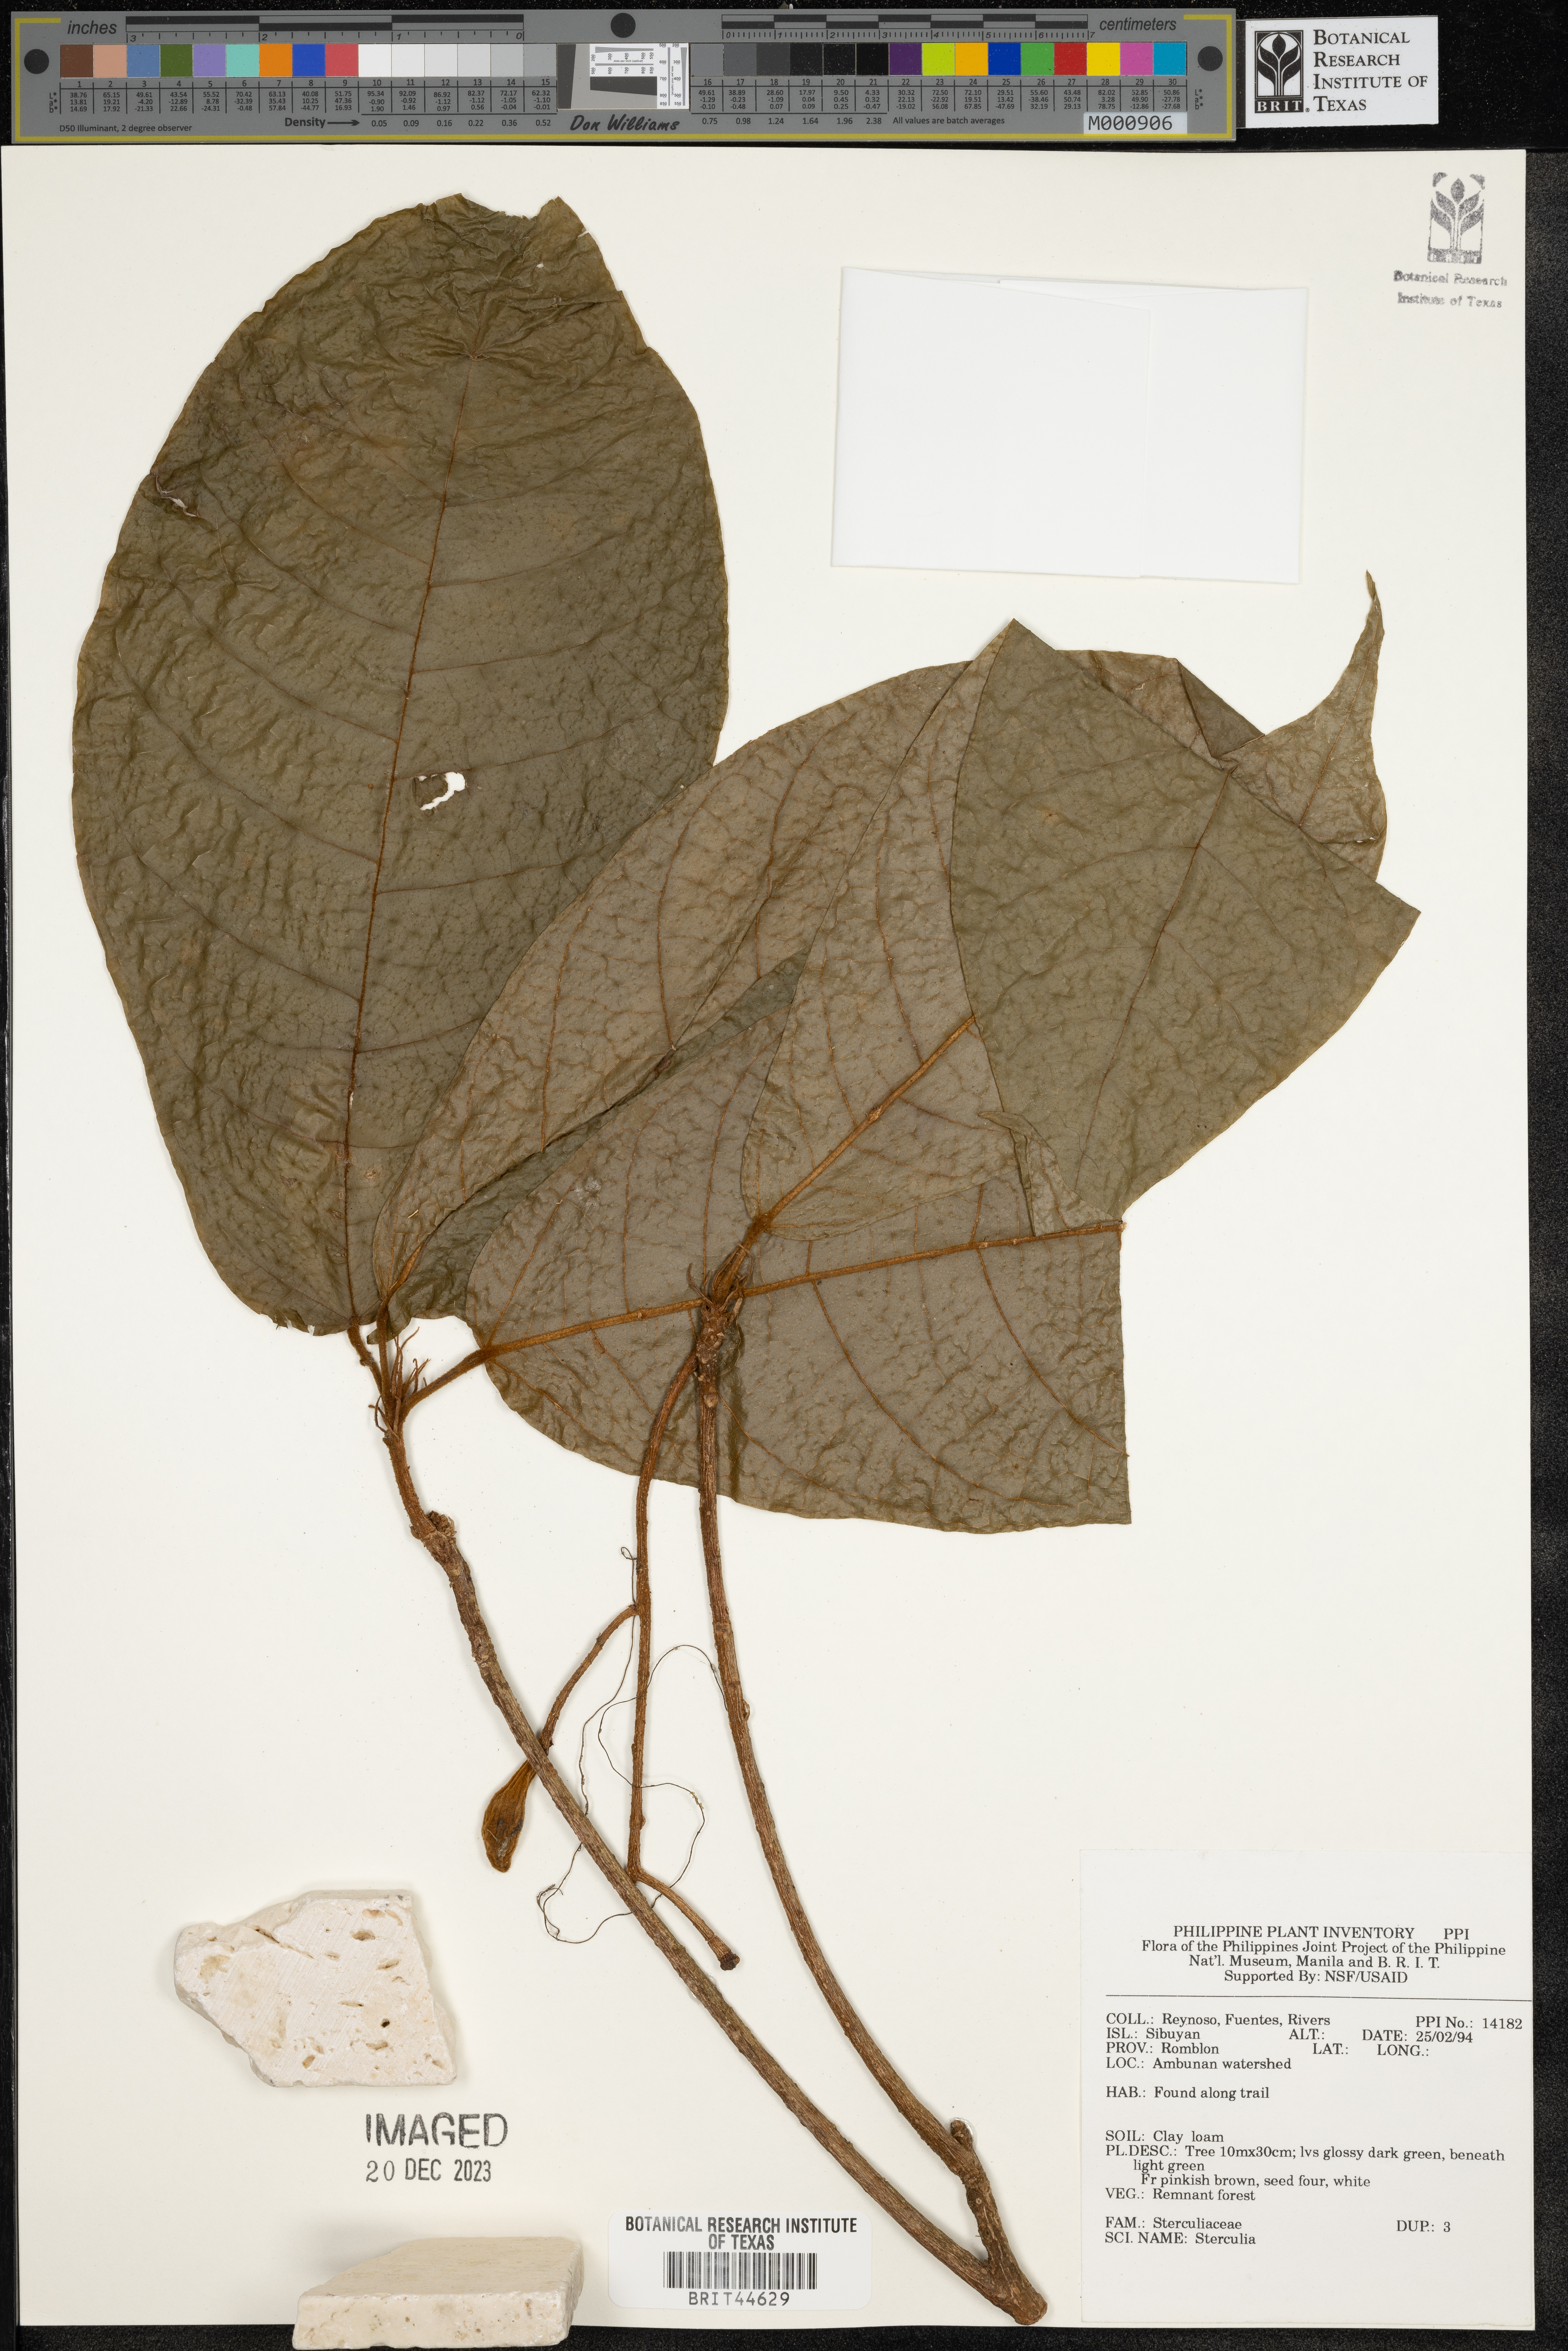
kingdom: Plantae
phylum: Tracheophyta
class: Magnoliopsida
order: Malvales
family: Malvaceae
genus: Sterculia
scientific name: Sterculia
